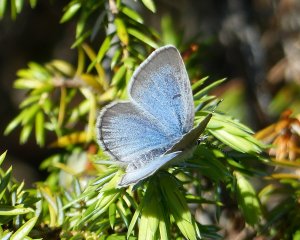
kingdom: Animalia
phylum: Arthropoda
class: Insecta
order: Lepidoptera
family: Lycaenidae
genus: Glaucopsyche
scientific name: Glaucopsyche lygdamus
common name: Silvery Blue
